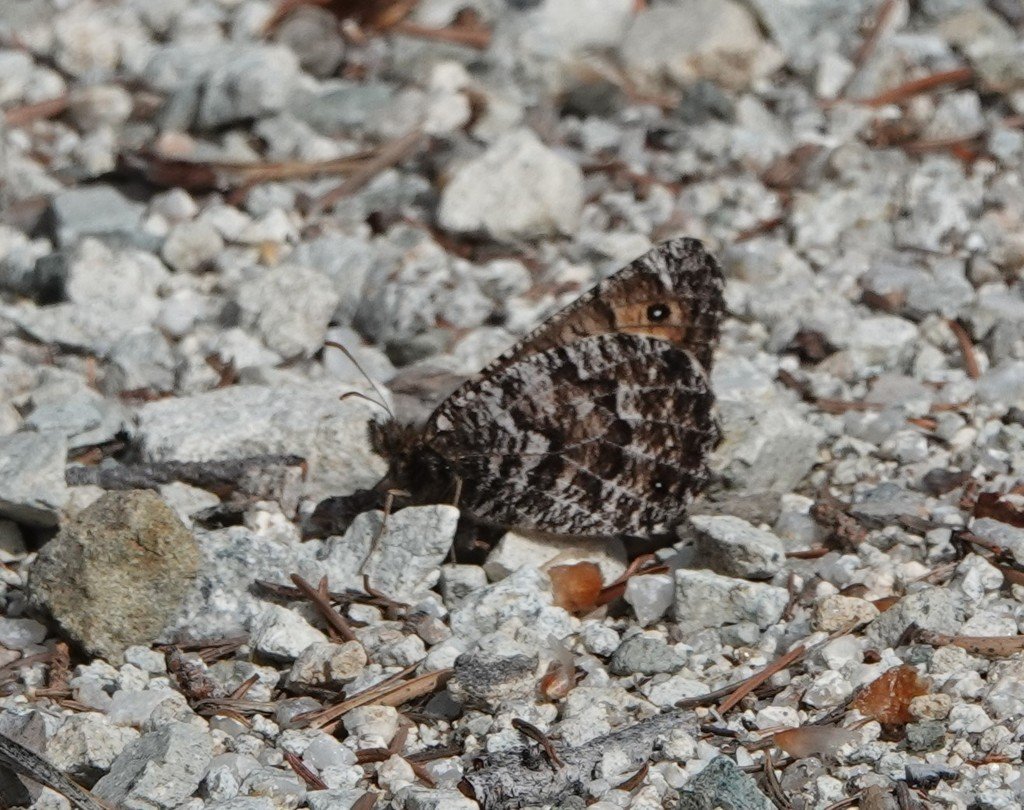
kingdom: Animalia
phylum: Arthropoda
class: Insecta
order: Lepidoptera
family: Nymphalidae
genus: Oeneis
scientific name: Oeneis chryxus
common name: Chryxus Arctic
